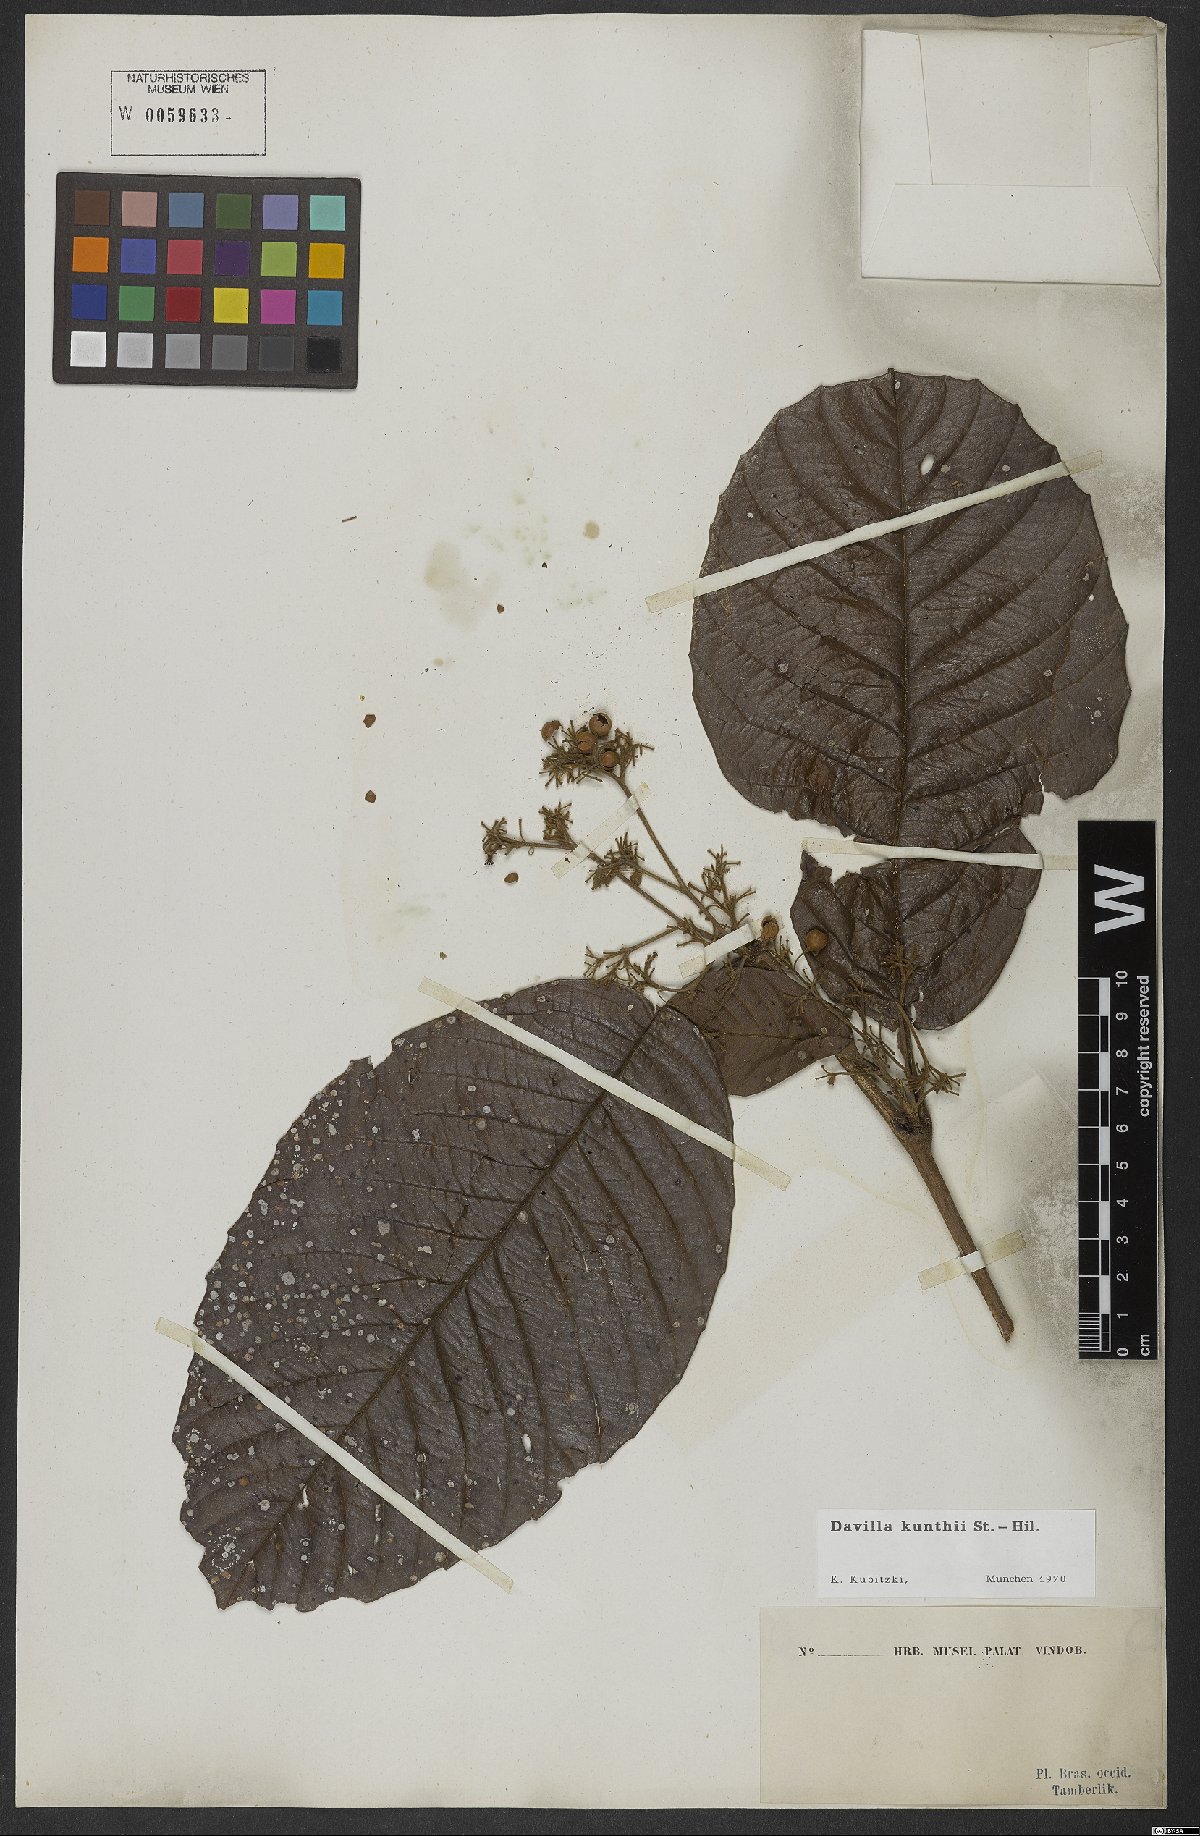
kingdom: Plantae
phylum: Tracheophyta
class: Magnoliopsida
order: Dilleniales
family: Dilleniaceae
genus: Davilla
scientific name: Davilla kunthii
